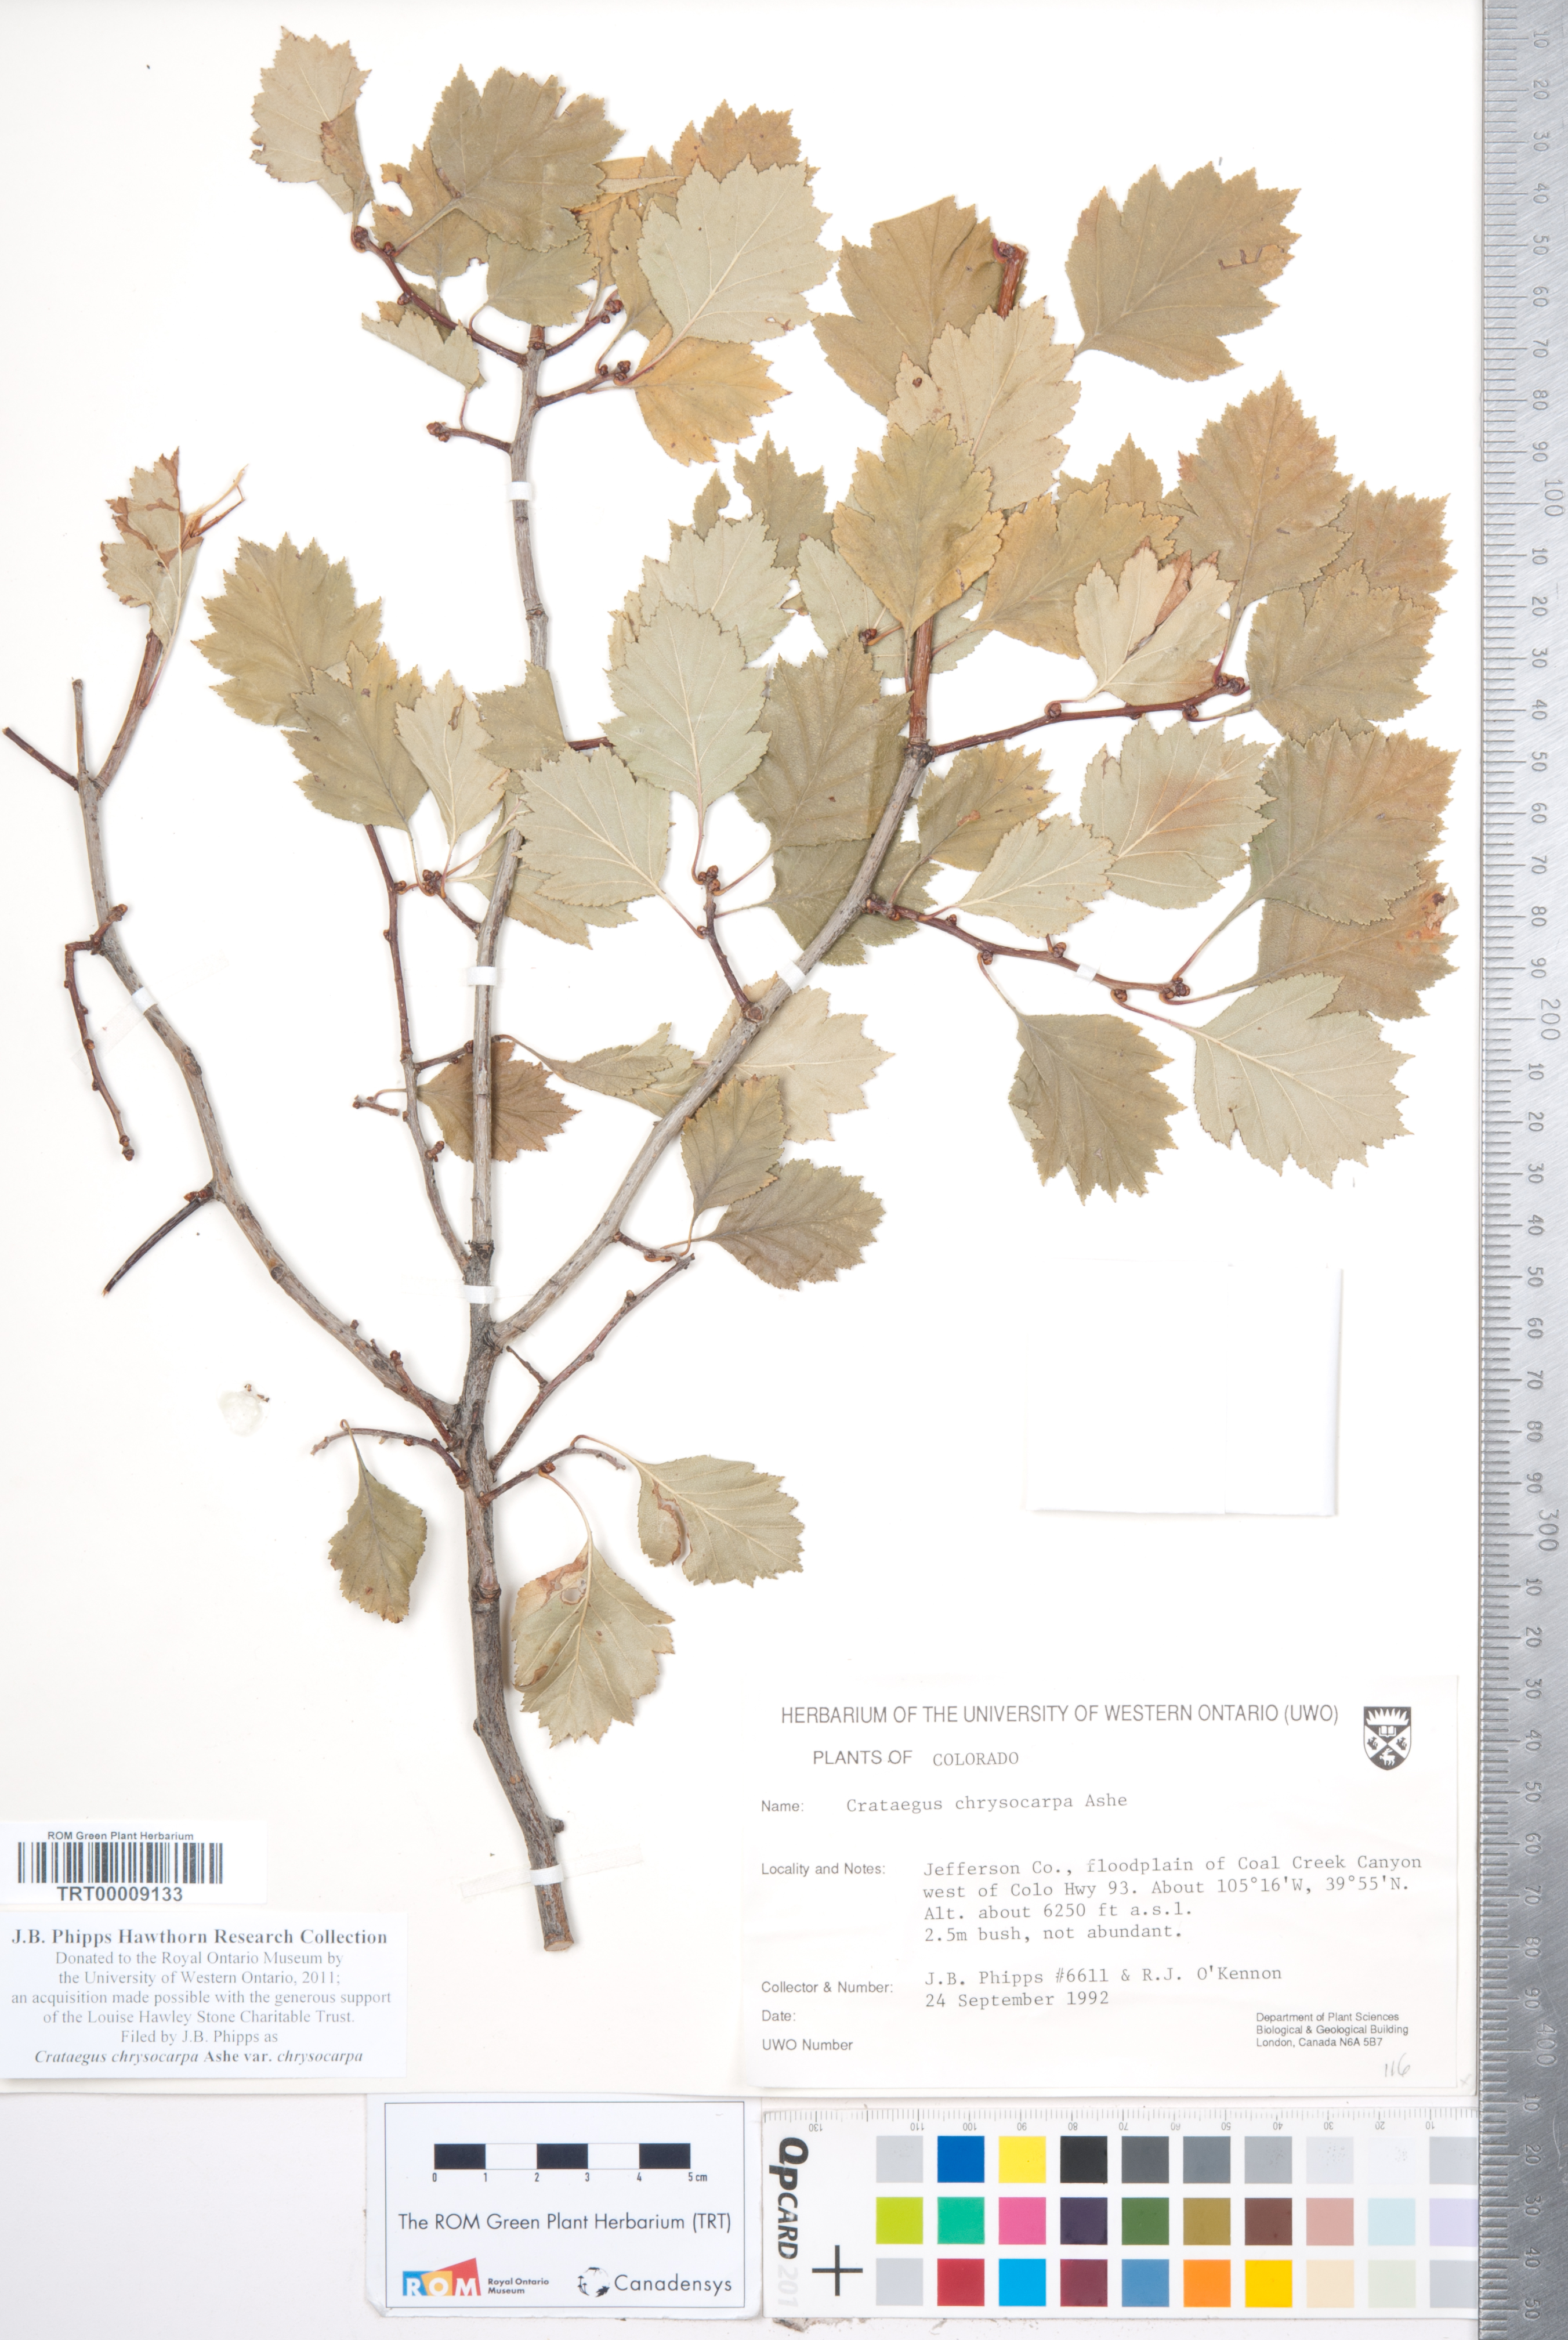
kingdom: Plantae
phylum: Tracheophyta
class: Magnoliopsida
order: Rosales
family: Rosaceae
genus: Crataegus
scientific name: Crataegus chrysocarpa
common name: Fire-berry hawthorn
